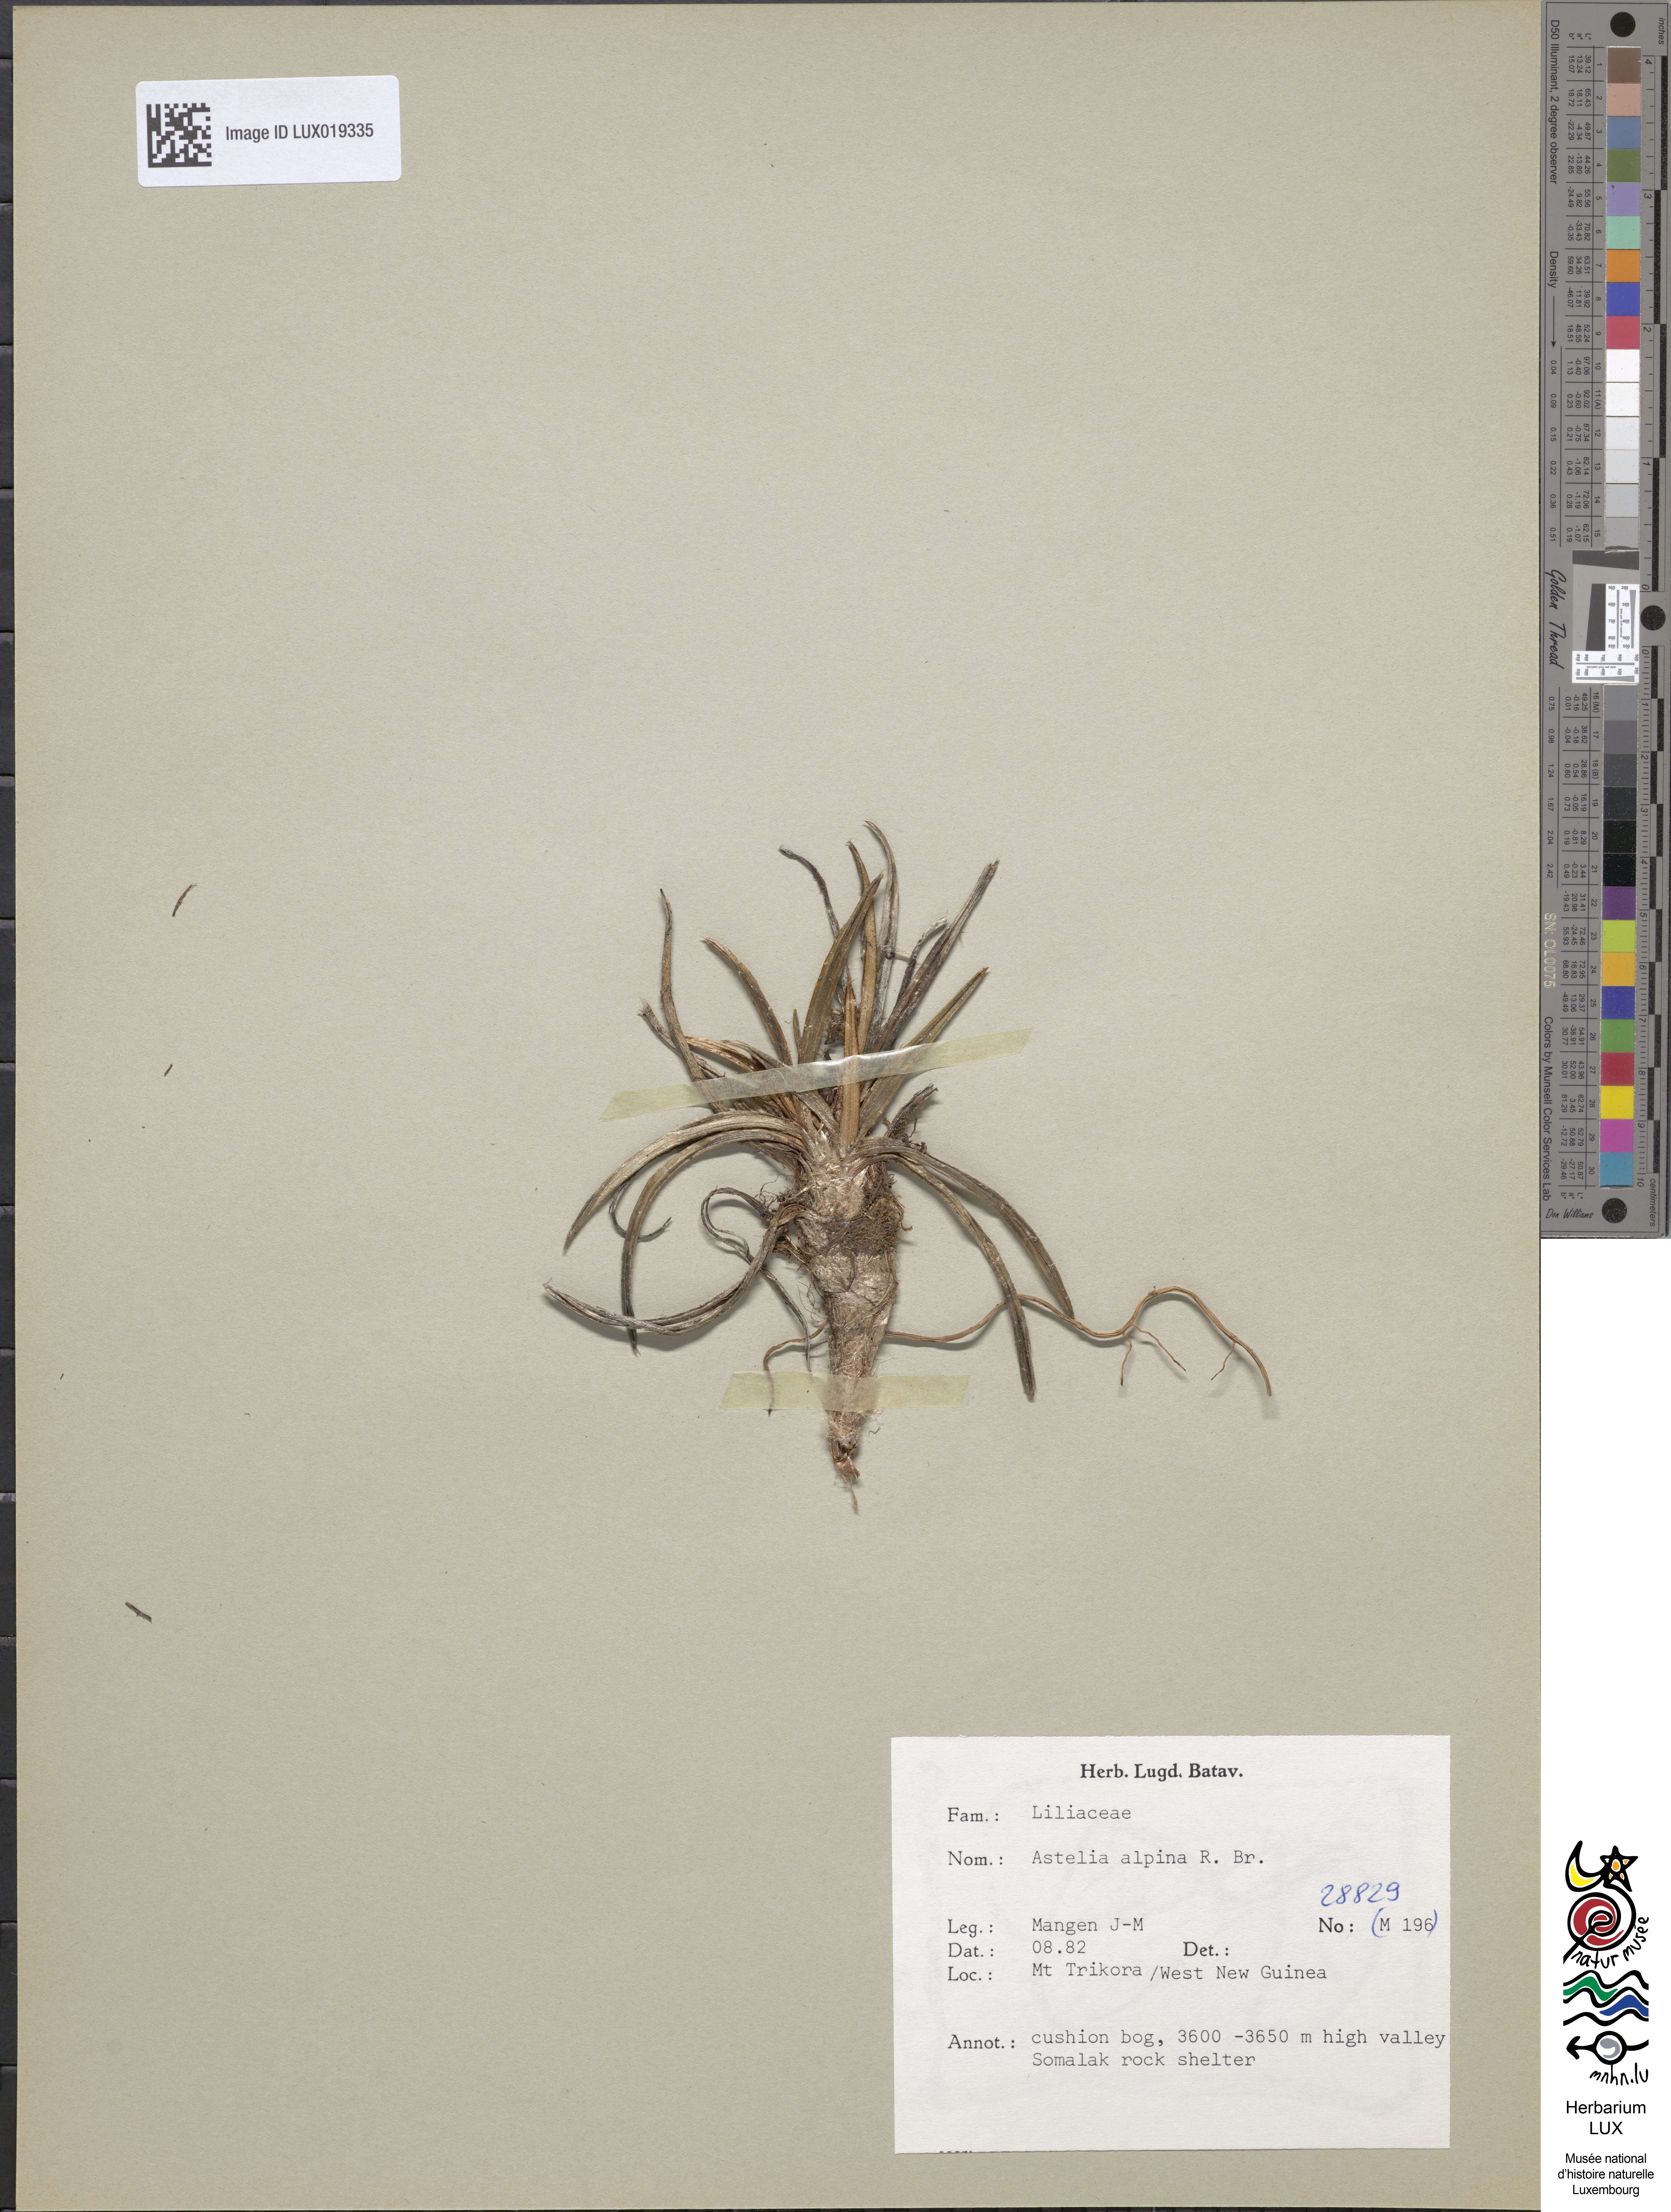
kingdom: Plantae
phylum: Tracheophyta
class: Liliopsida
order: Asparagales
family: Asteliaceae
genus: Astelia
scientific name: Astelia alpina
